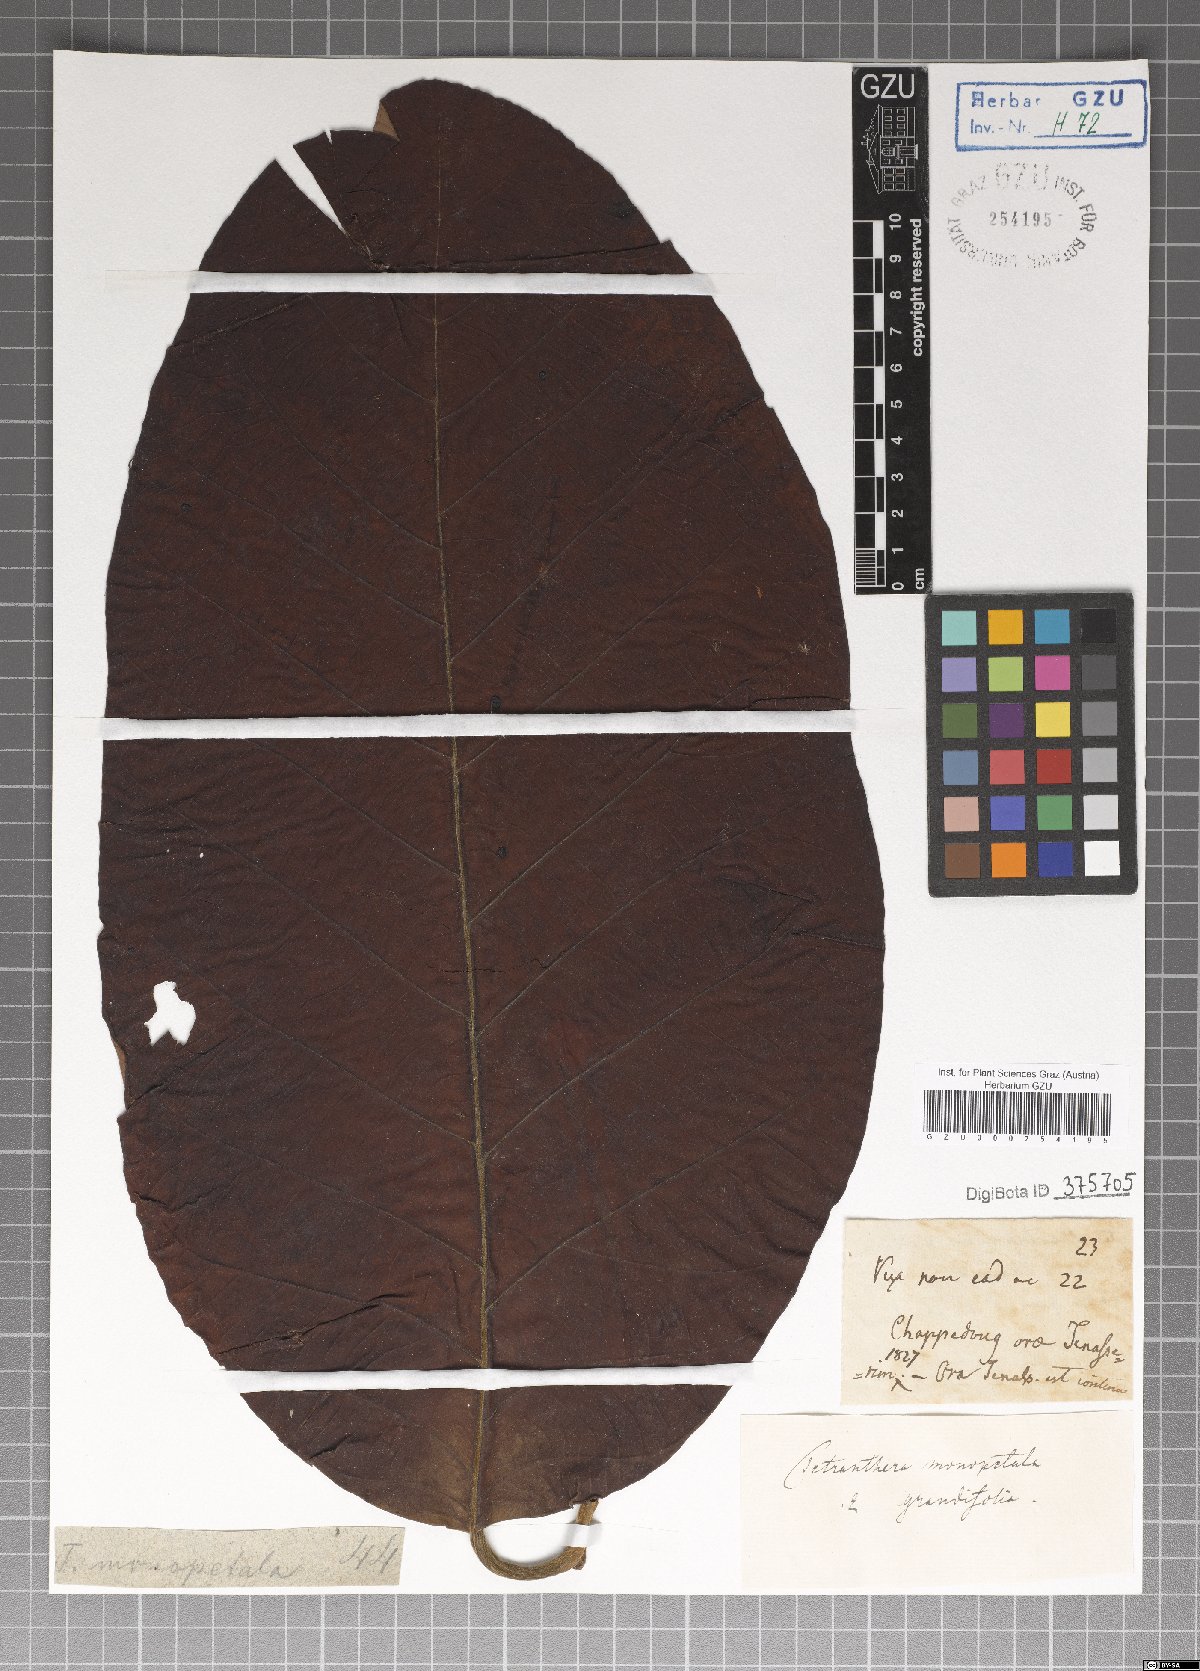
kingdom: Plantae
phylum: Tracheophyta
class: Magnoliopsida
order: Laurales
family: Lauraceae
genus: Litsea
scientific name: Litsea monopetala
